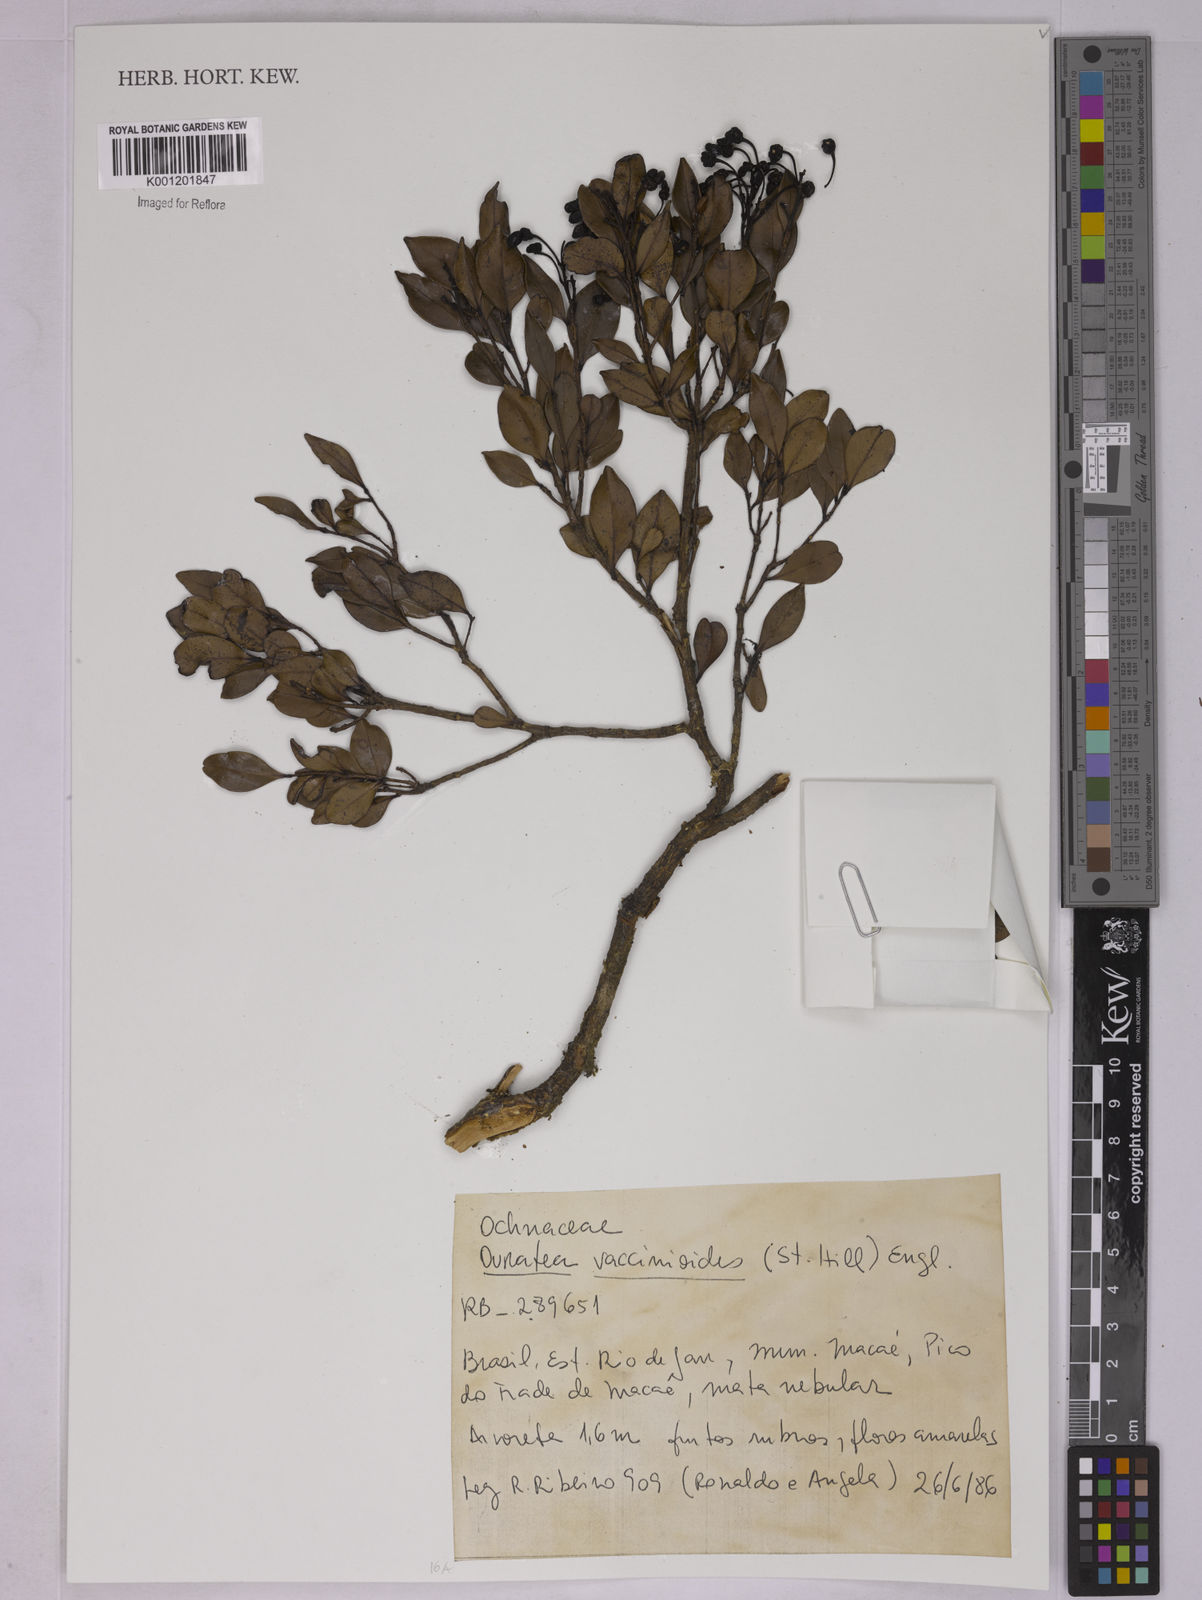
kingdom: Plantae
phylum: Tracheophyta
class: Magnoliopsida
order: Malpighiales
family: Ochnaceae
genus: Ouratea
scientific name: Ouratea vaccinioides
